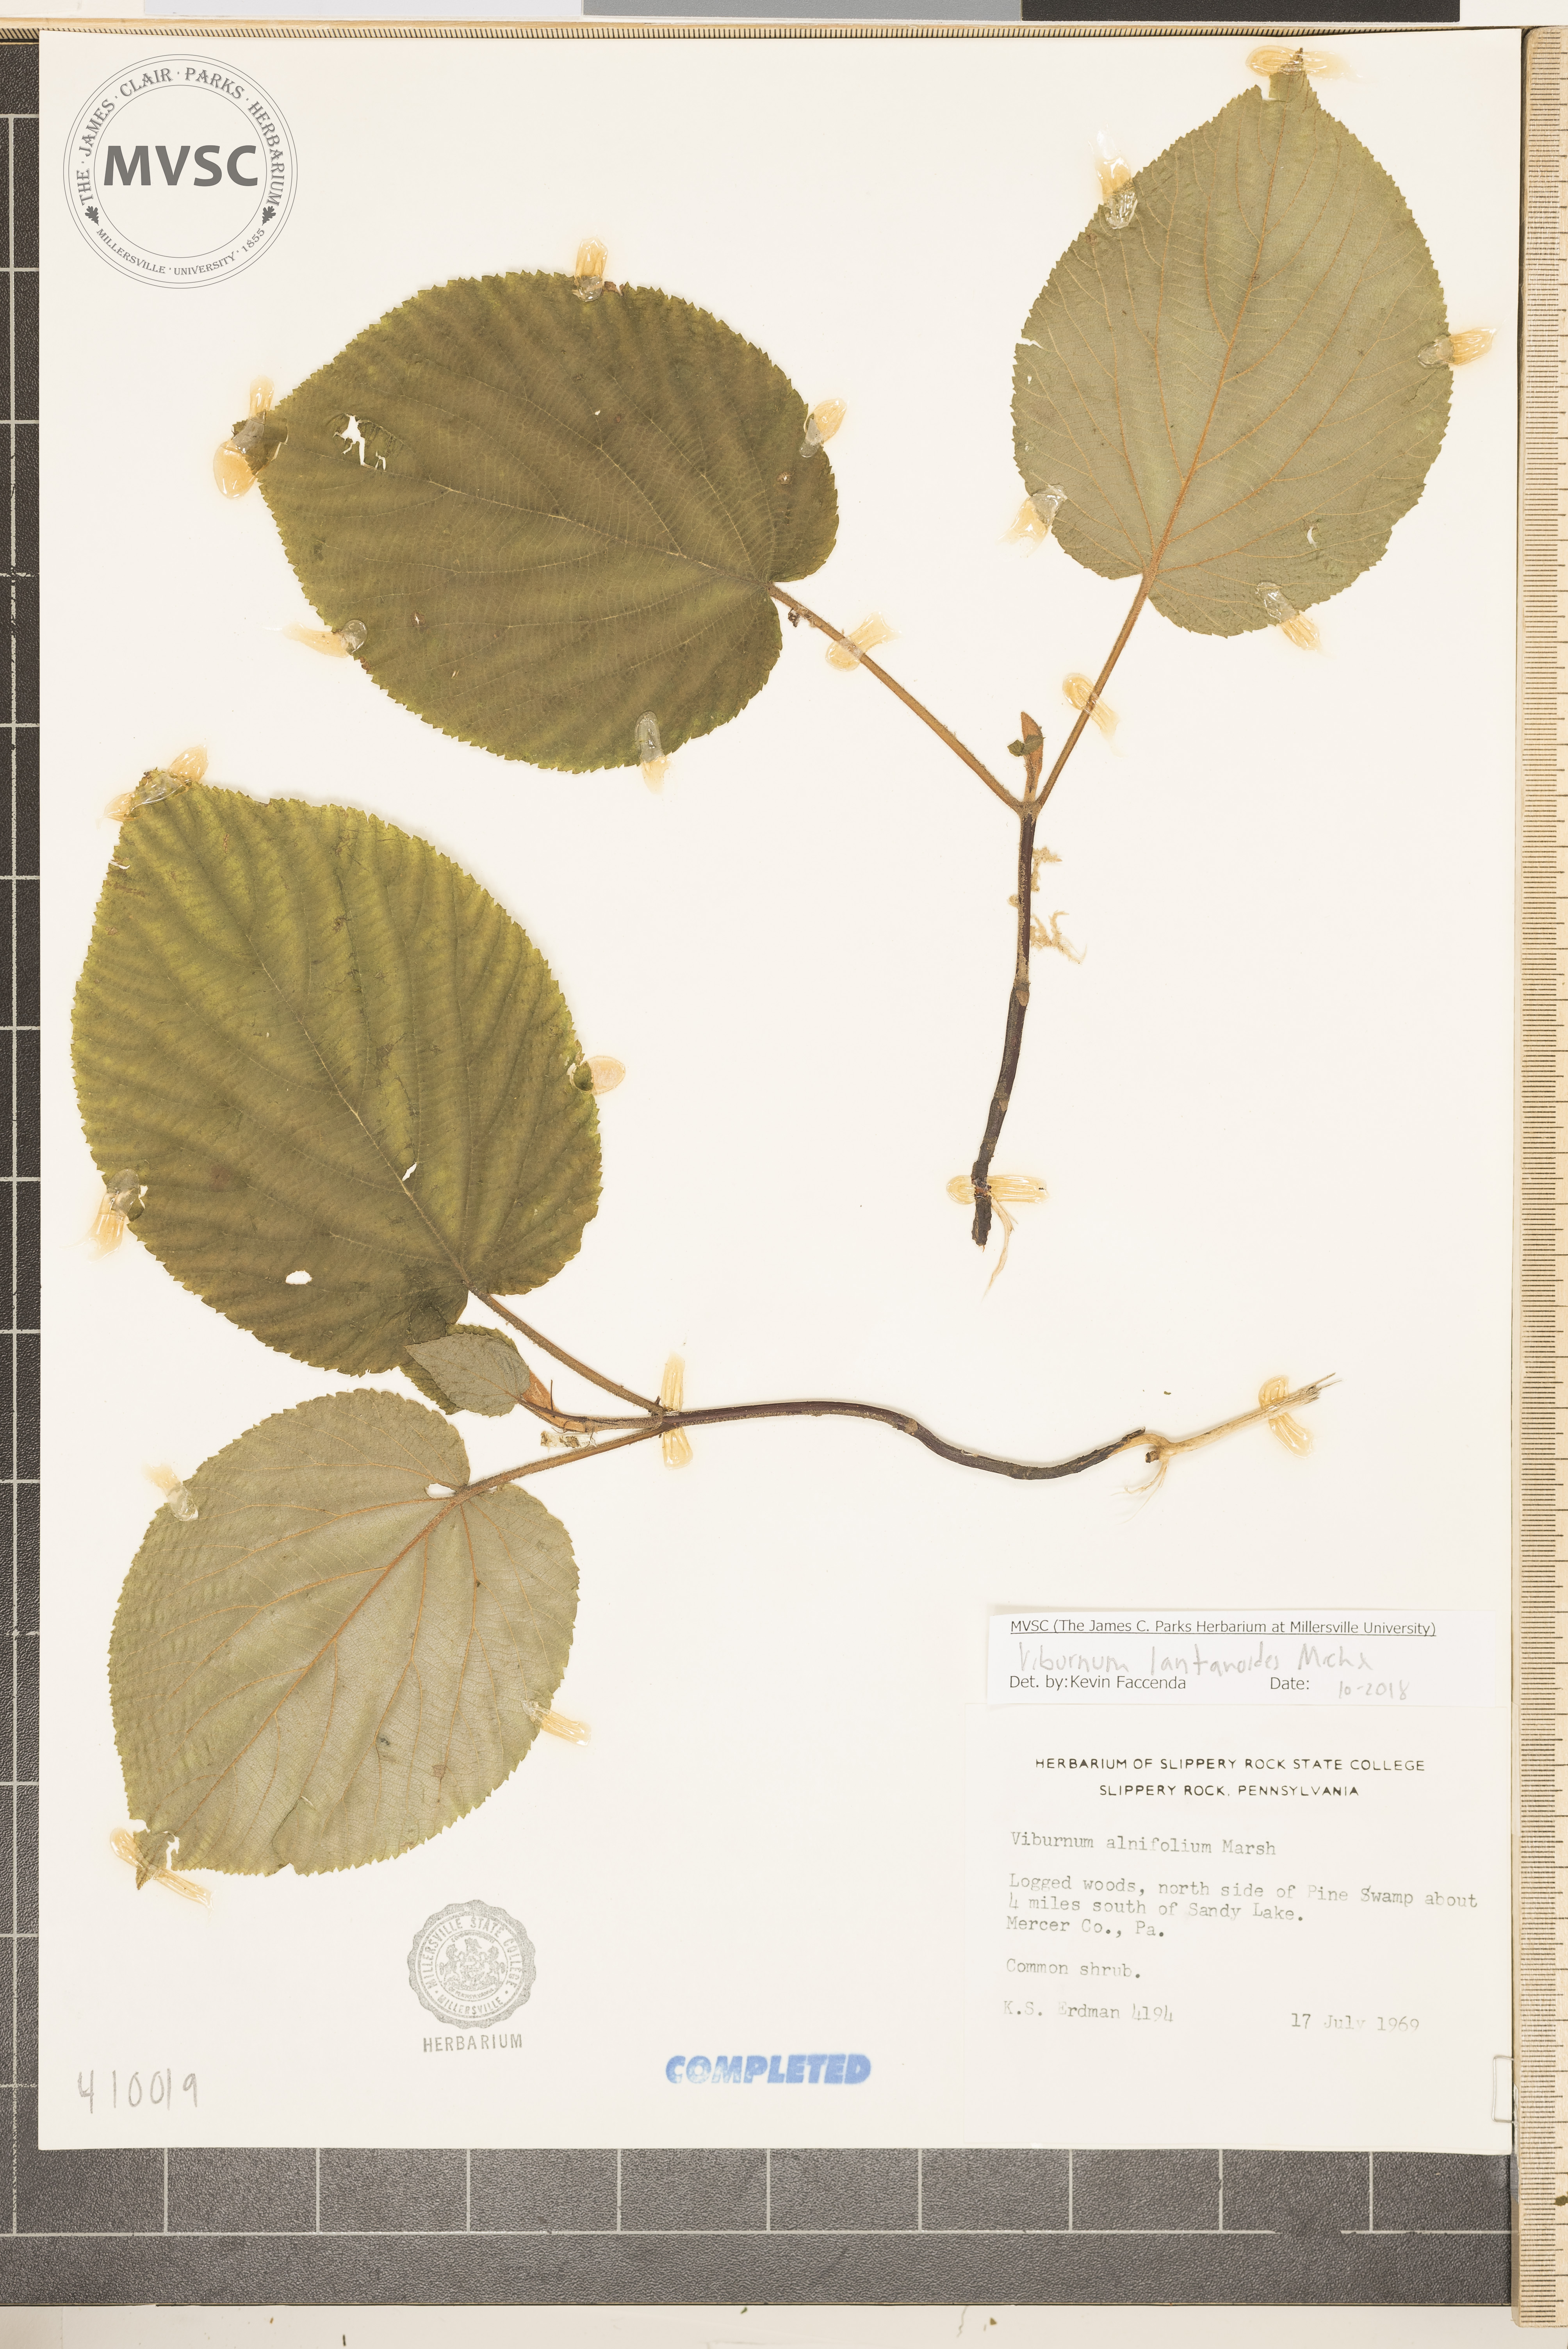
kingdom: Plantae
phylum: Tracheophyta
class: Magnoliopsida
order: Dipsacales
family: Viburnaceae
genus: Viburnum
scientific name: Viburnum lantanoides
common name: hobblebush
